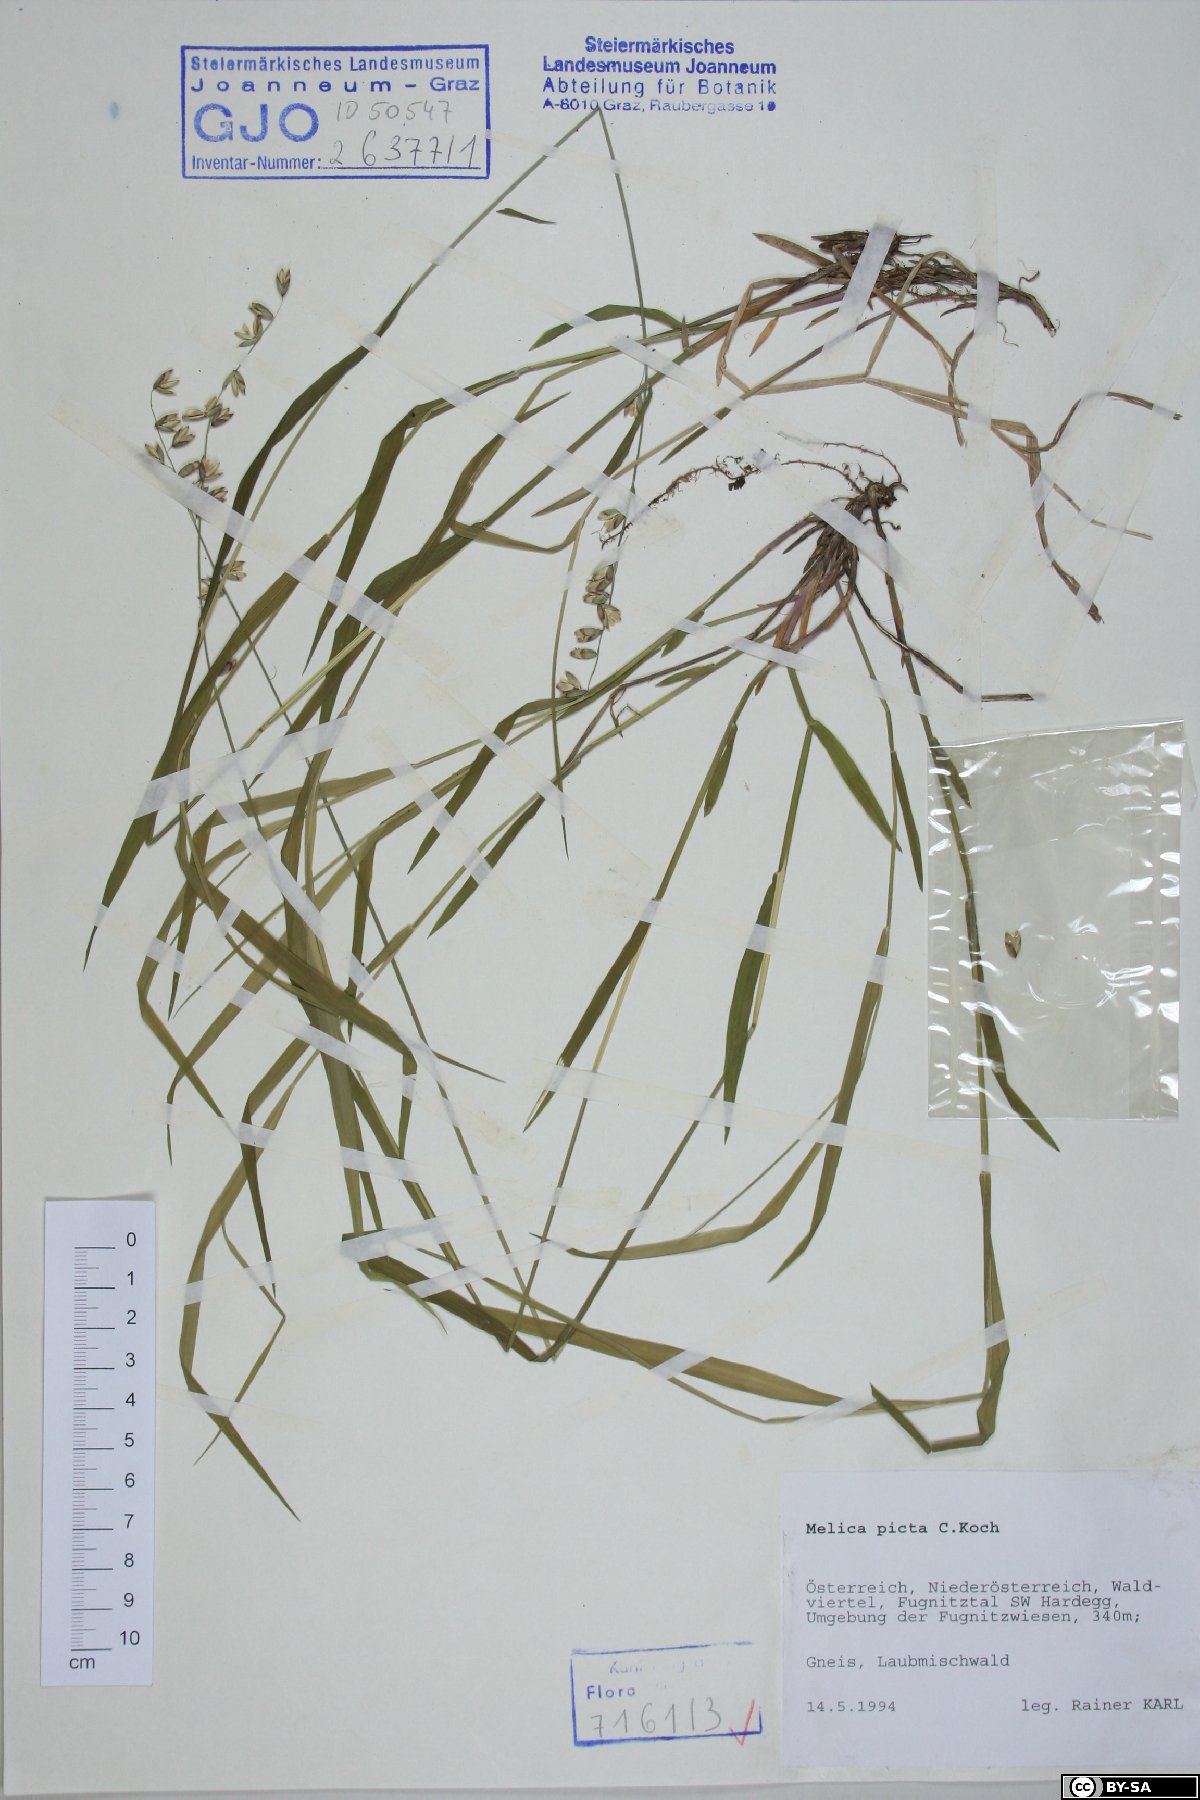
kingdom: Plantae
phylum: Tracheophyta
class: Liliopsida
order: Poales
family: Poaceae
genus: Melica
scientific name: Melica picta
